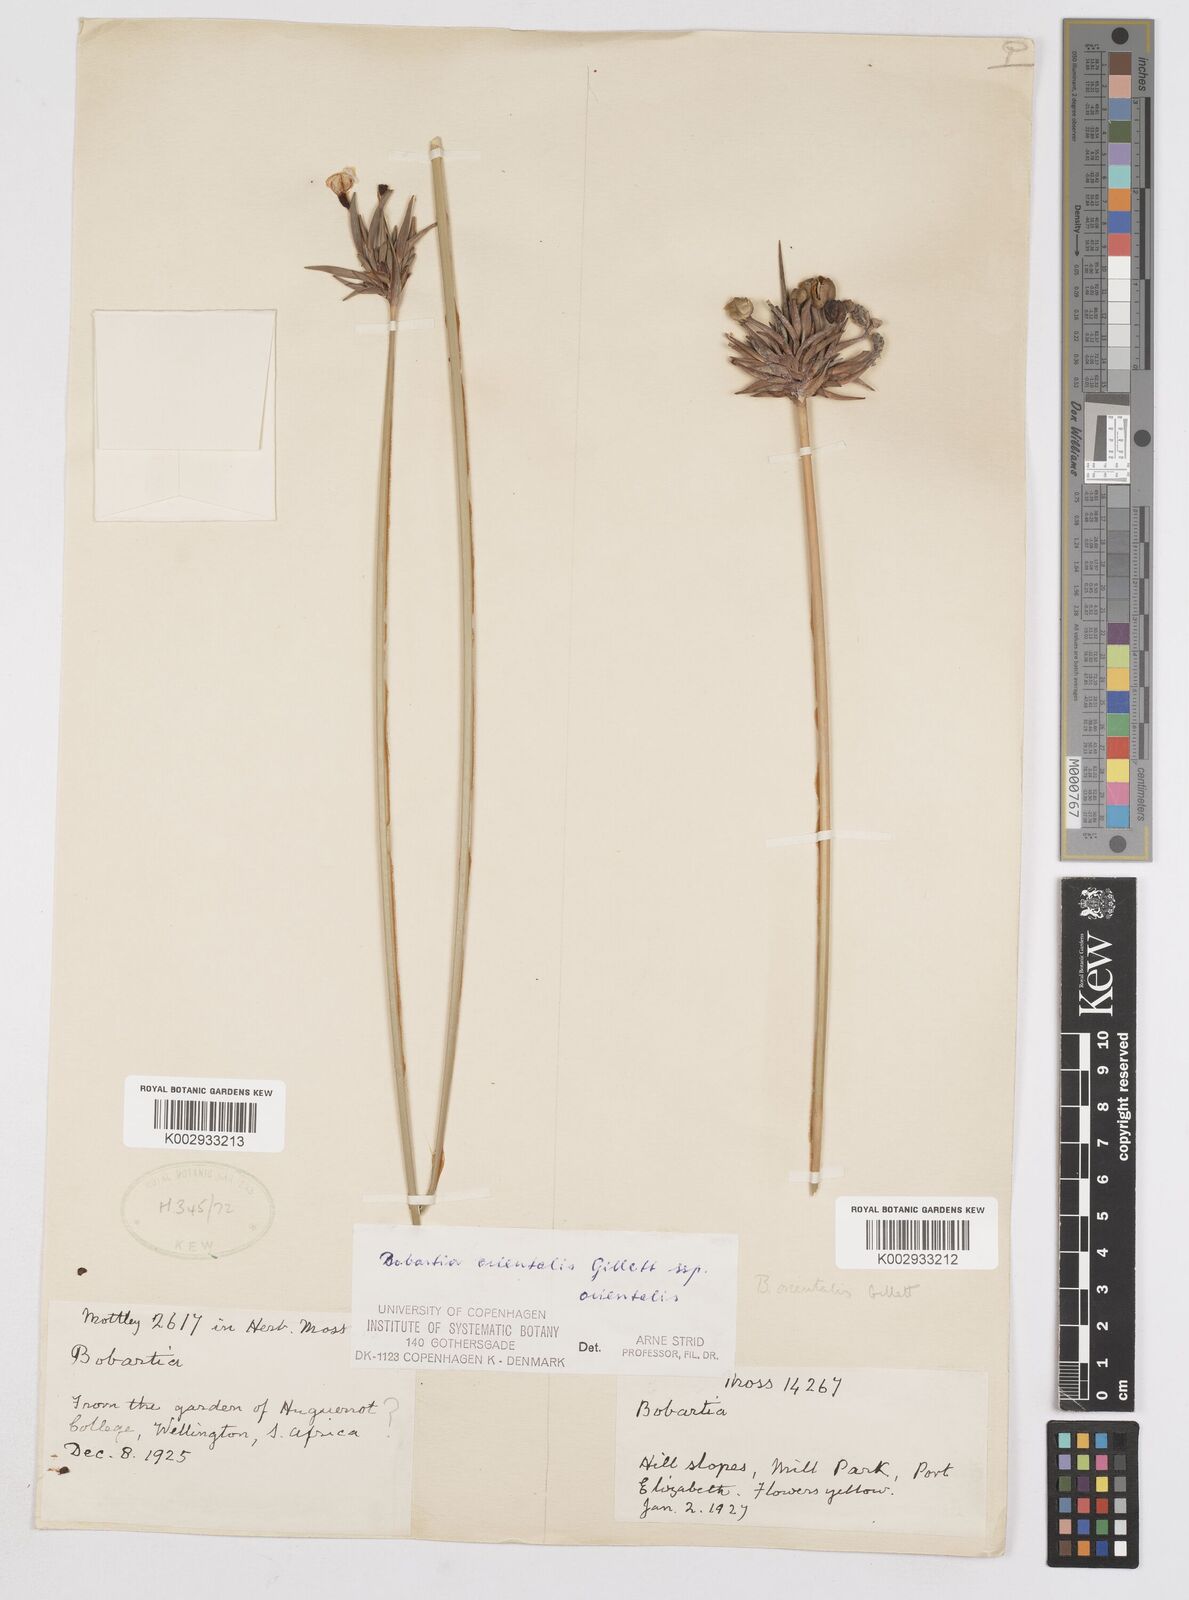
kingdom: Plantae
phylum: Tracheophyta
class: Liliopsida
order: Asparagales
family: Iridaceae
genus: Bobartia
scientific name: Bobartia orientalis
